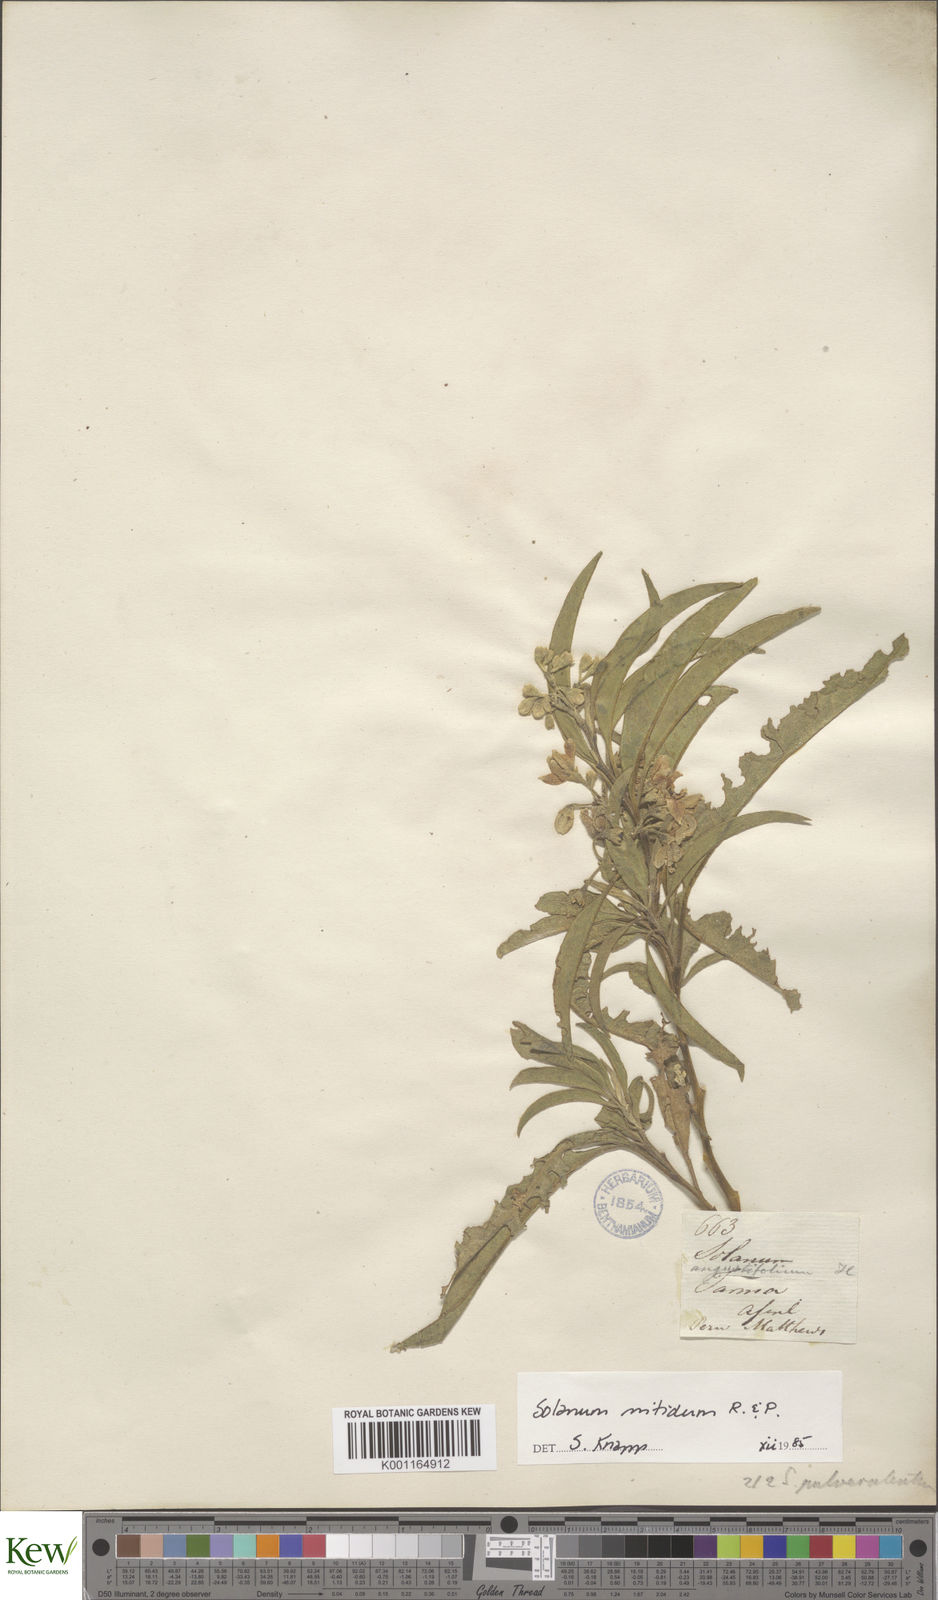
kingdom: Plantae
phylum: Tracheophyta
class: Magnoliopsida
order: Solanales
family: Solanaceae
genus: Solanum
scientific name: Solanum nitidum
